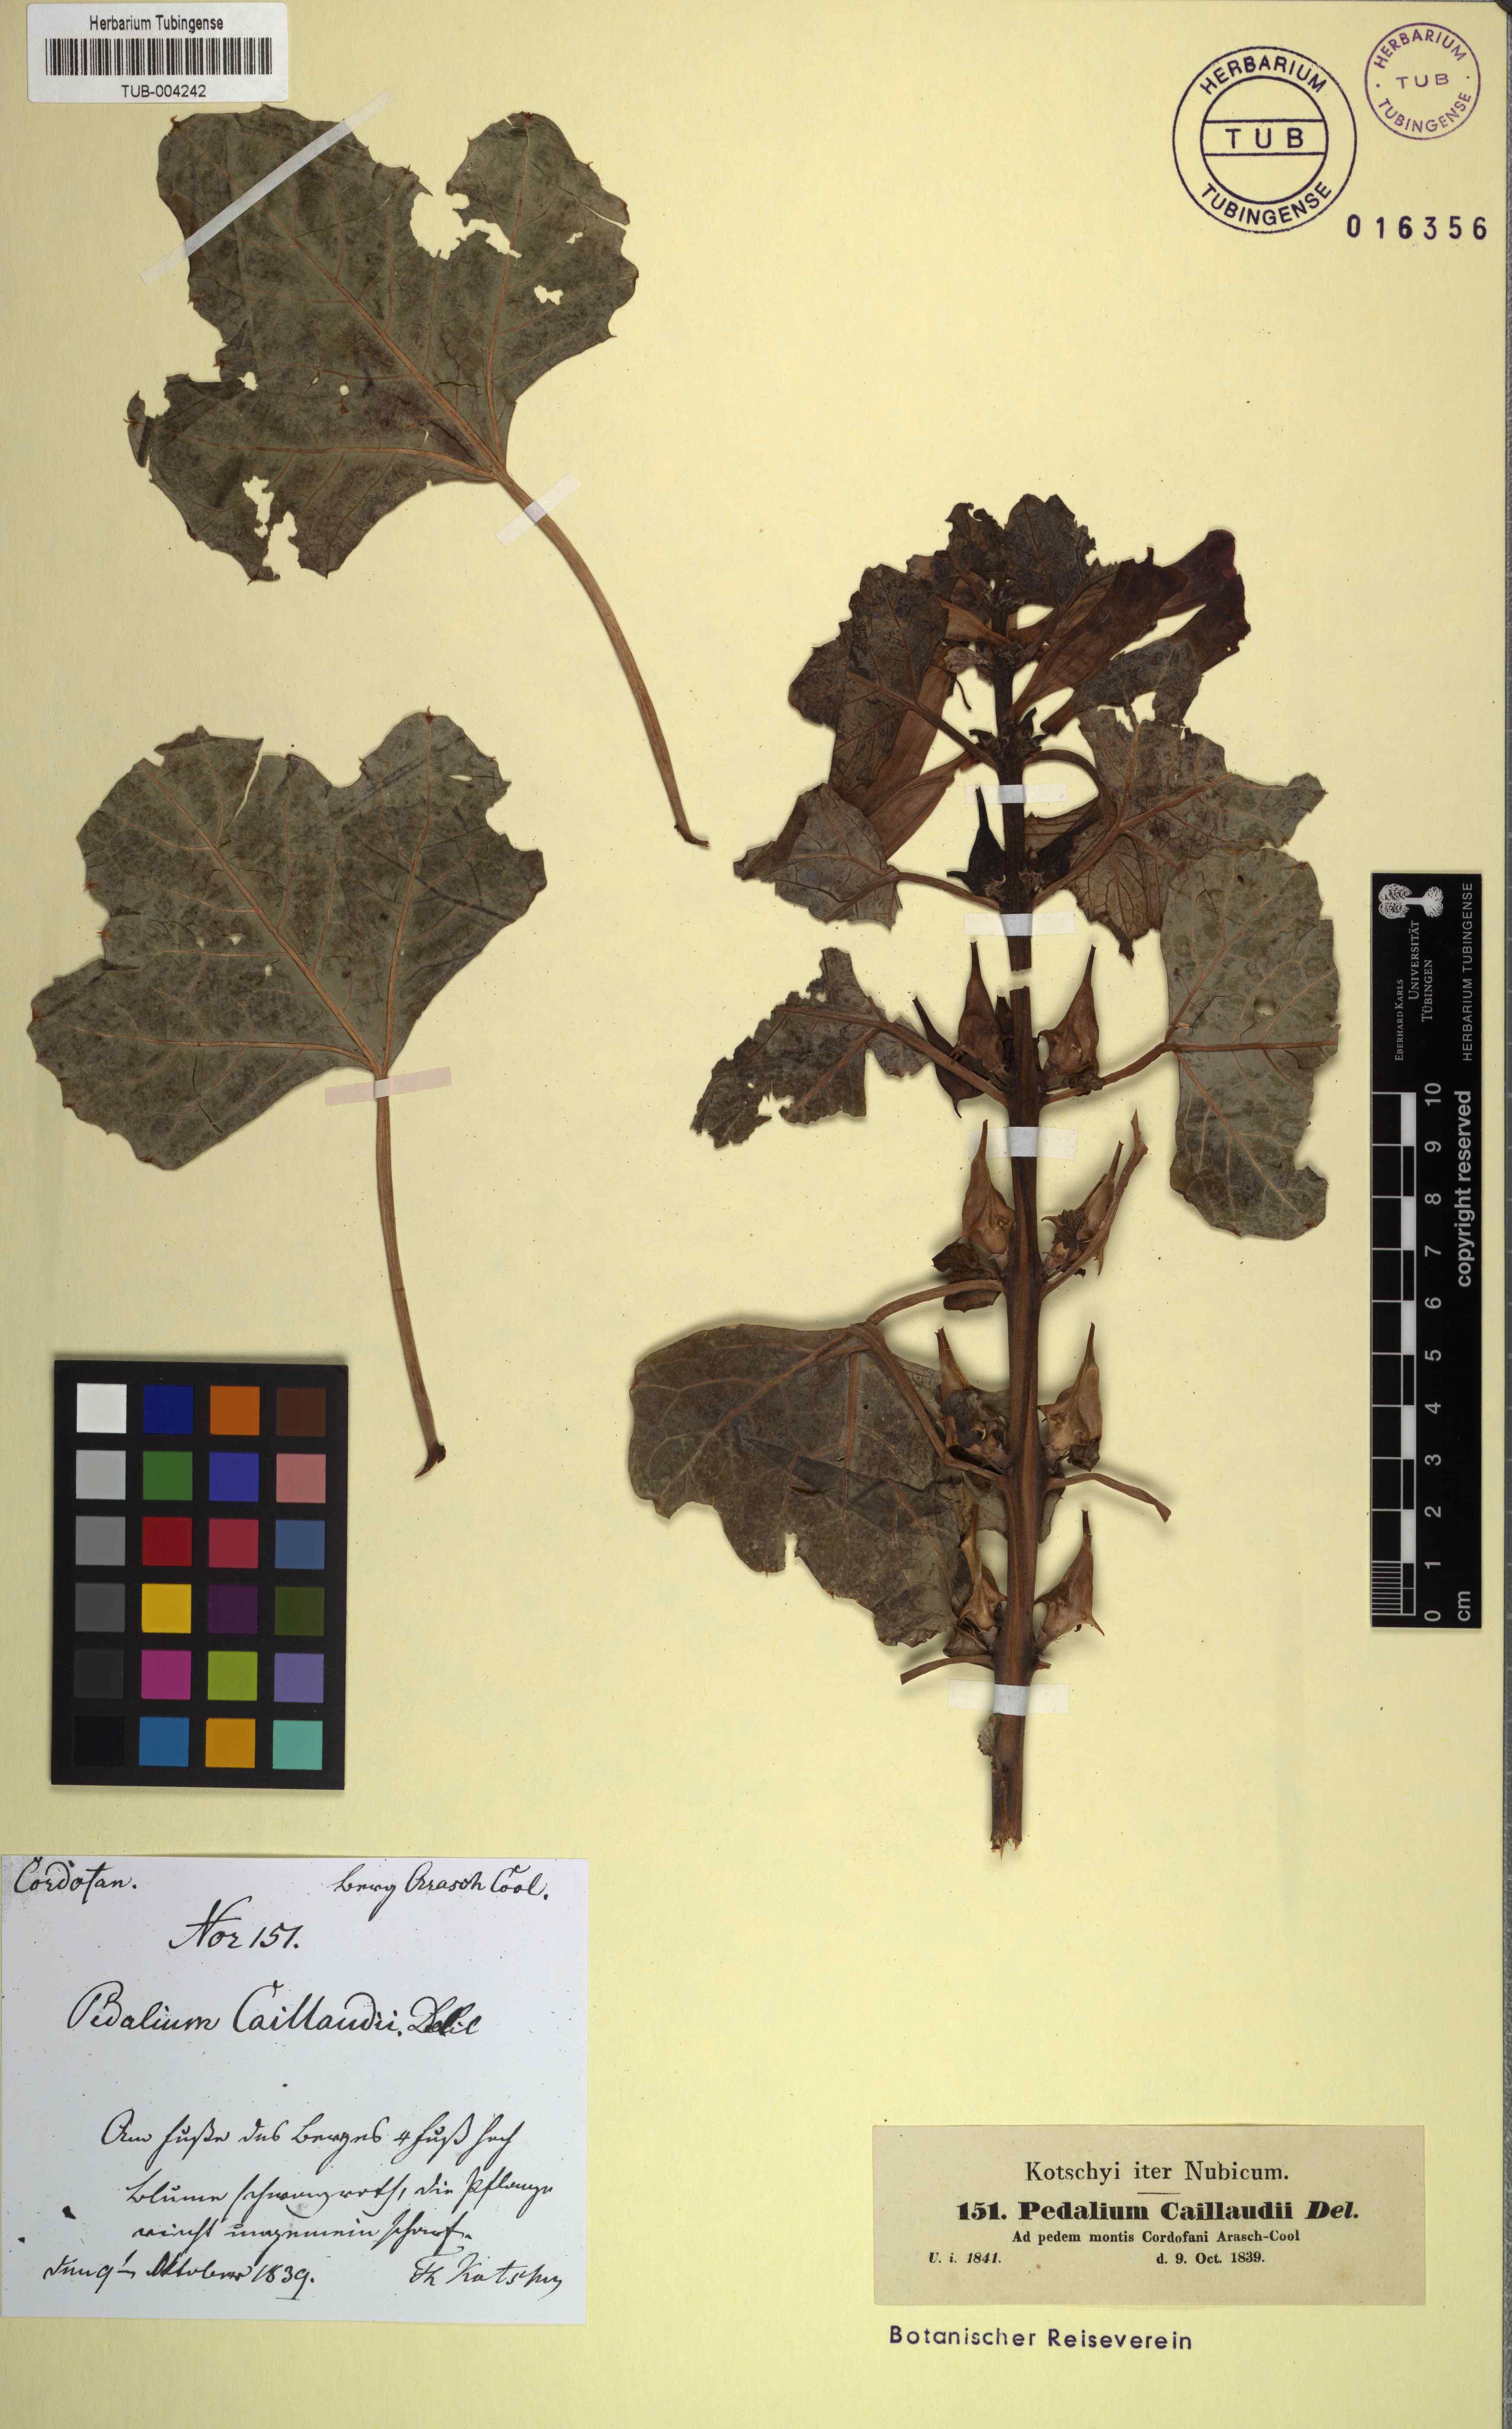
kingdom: Plantae
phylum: Tracheophyta
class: Magnoliopsida
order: Lamiales
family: Pedaliaceae
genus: Rogeria
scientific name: Rogeria adenophylla
